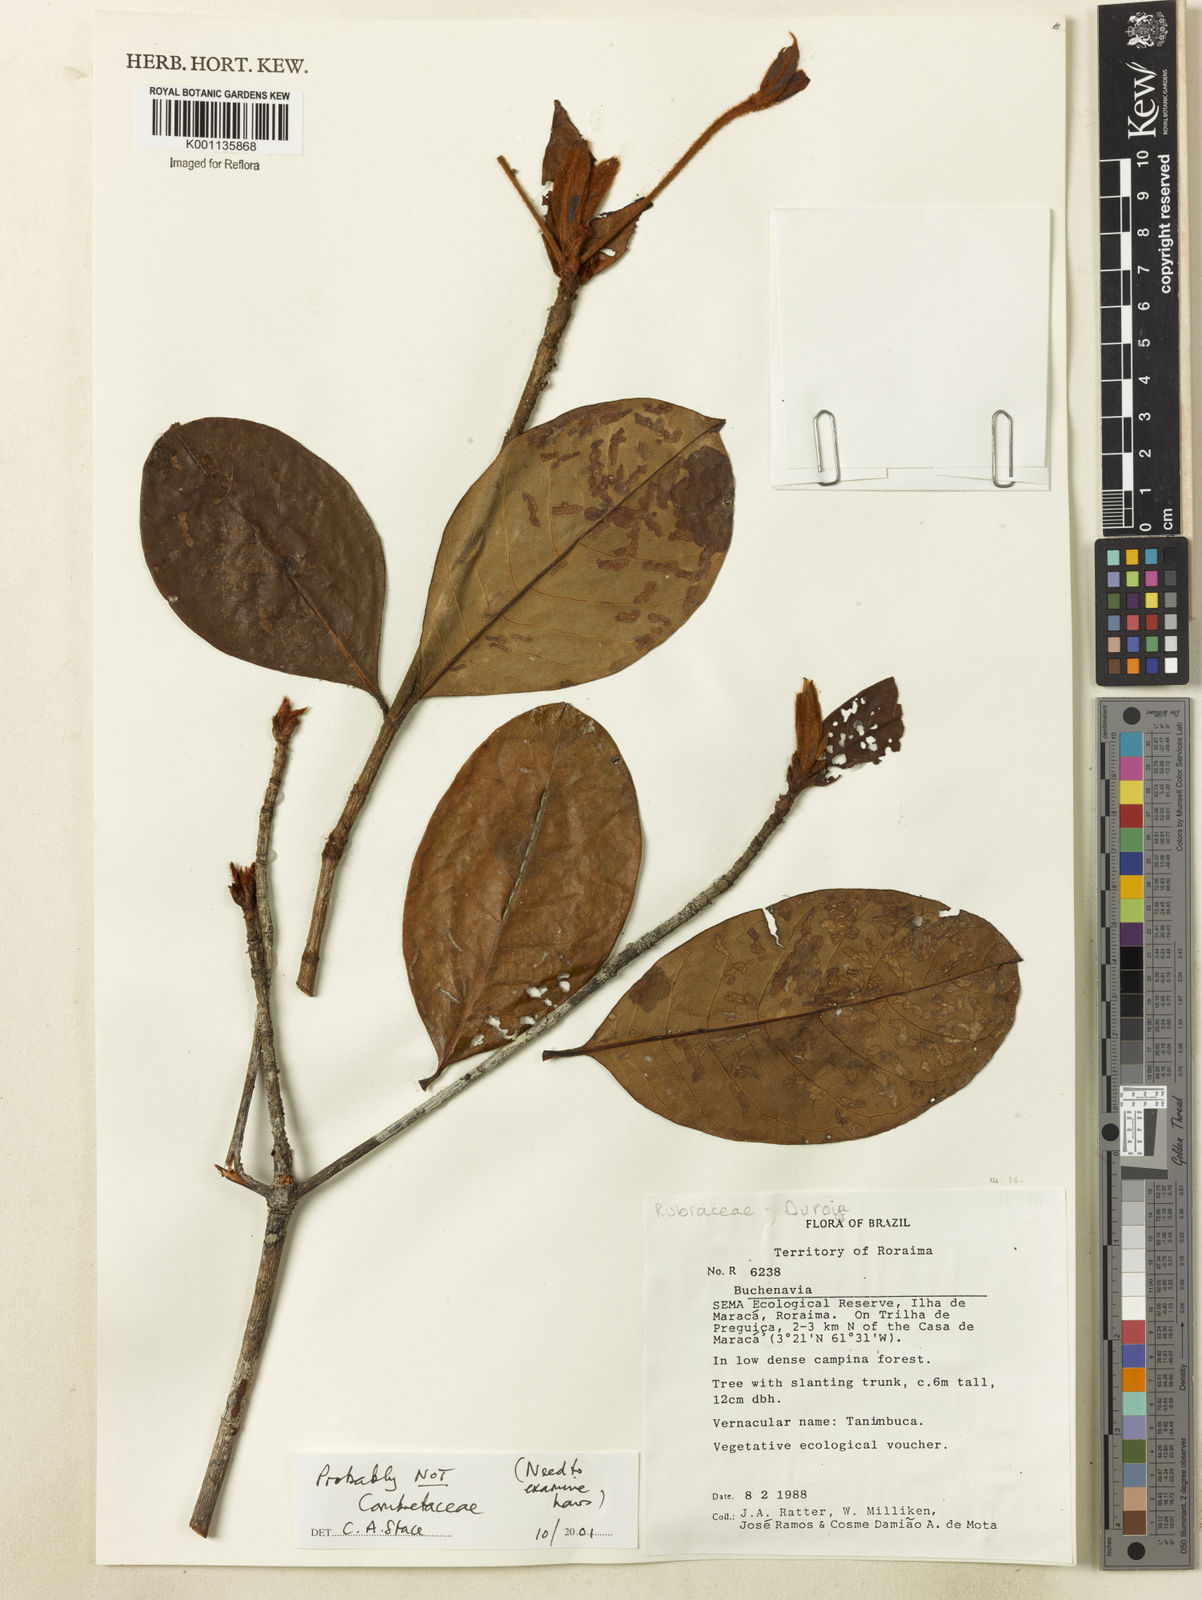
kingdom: Plantae
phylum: Tracheophyta
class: Magnoliopsida
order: Gentianales
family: Rubiaceae
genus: Duroia
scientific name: Duroia
